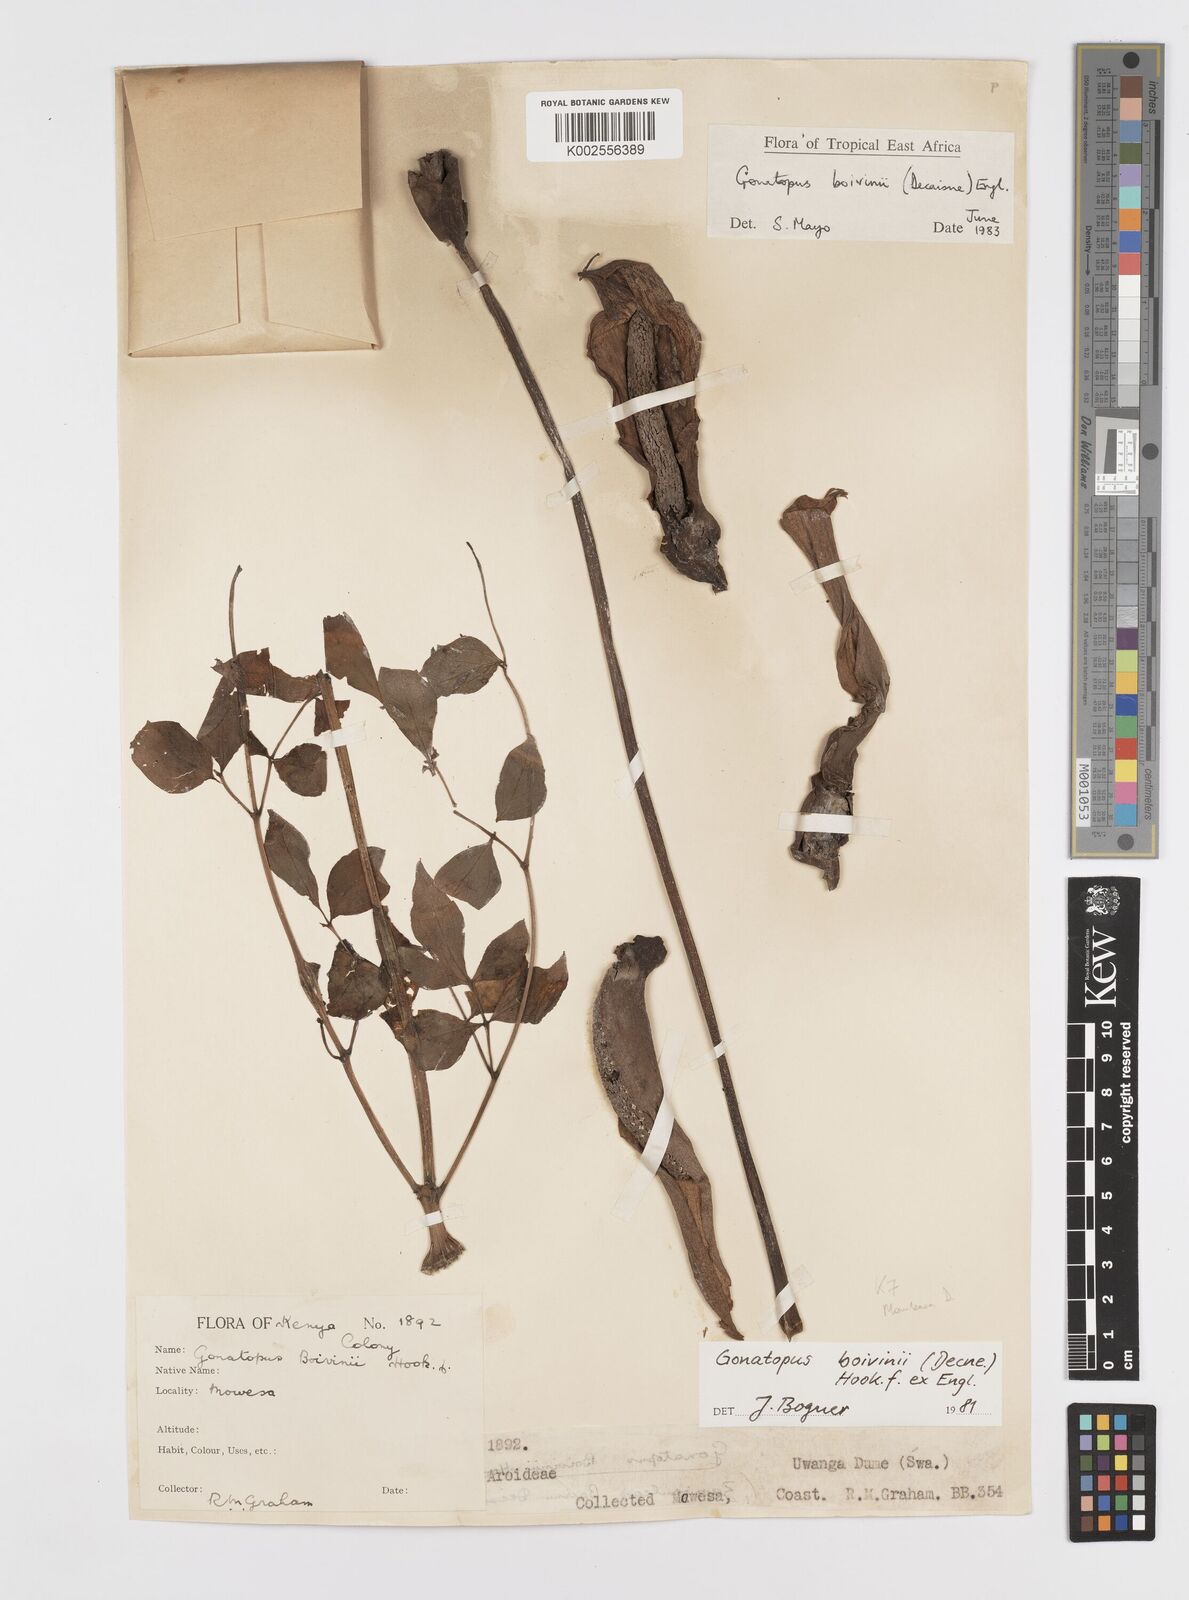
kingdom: Plantae
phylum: Tracheophyta
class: Liliopsida
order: Alismatales
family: Araceae
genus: Gonatopus
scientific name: Gonatopus boivinii
